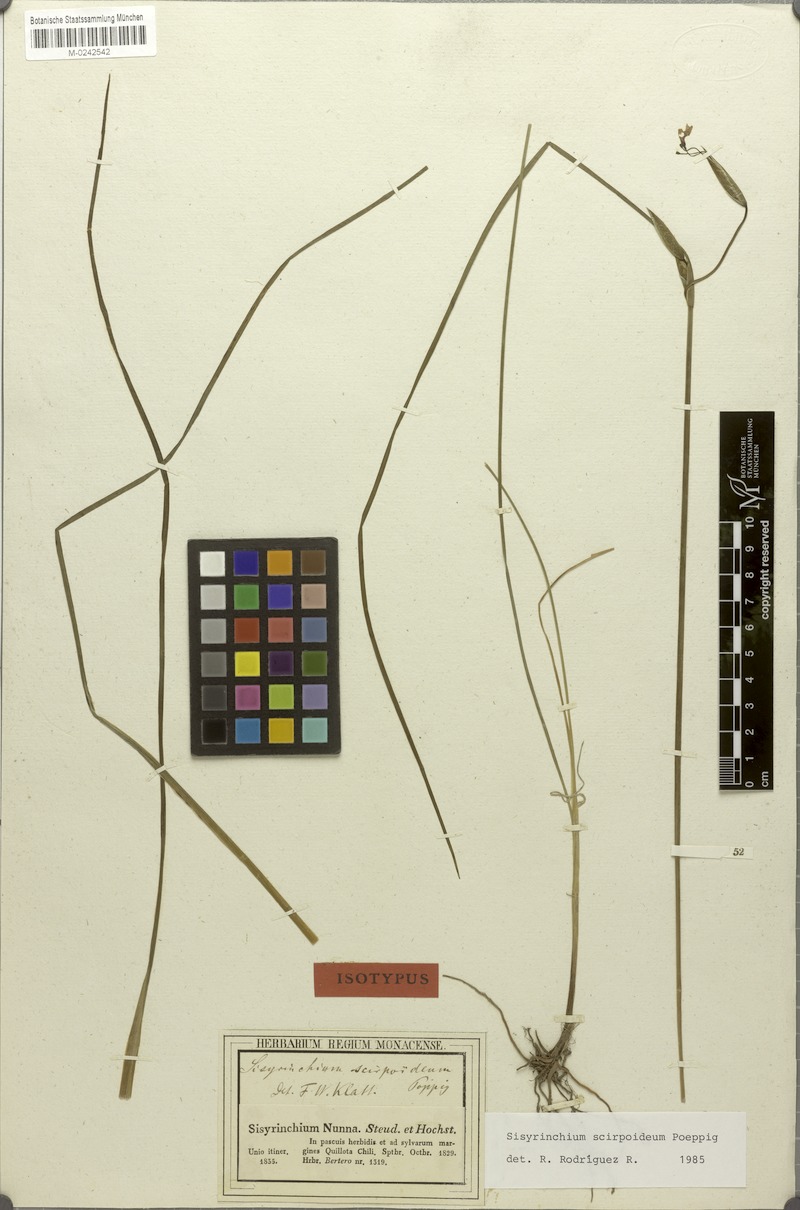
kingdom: Plantae
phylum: Tracheophyta
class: Liliopsida
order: Asparagales
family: Iridaceae
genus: Olsynium
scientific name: Olsynium scirpoideum
